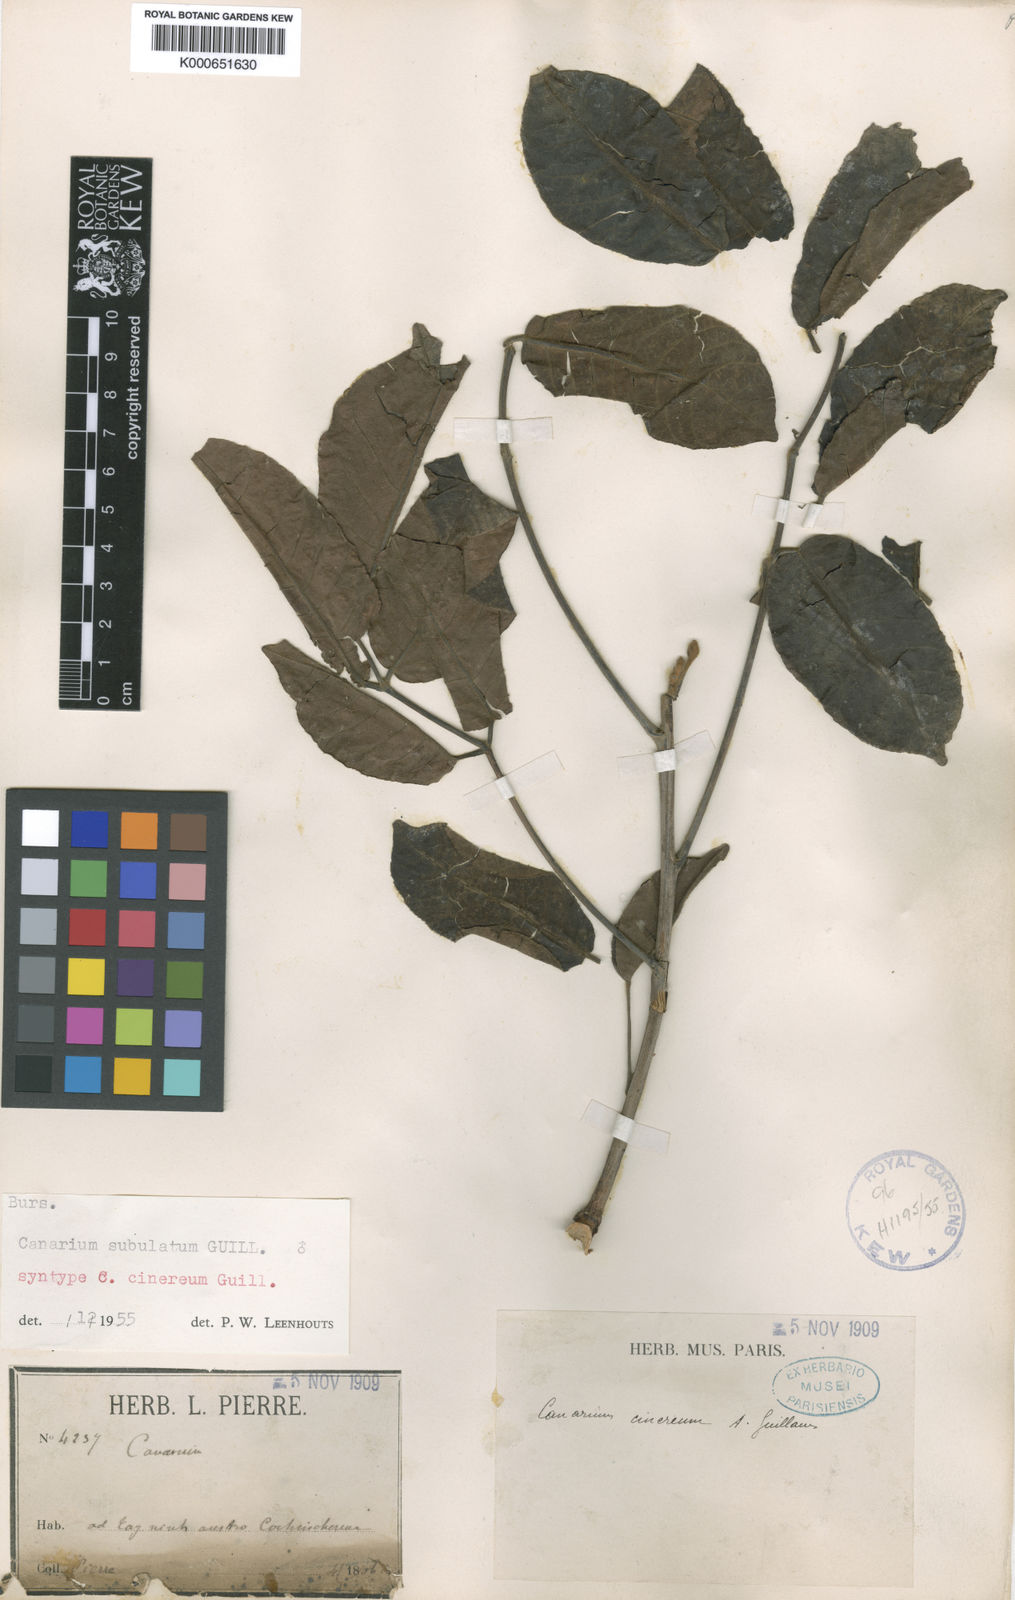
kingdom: Plantae
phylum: Tracheophyta
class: Magnoliopsida
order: Sapindales
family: Burseraceae
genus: Canarium
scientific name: Canarium subulatum
